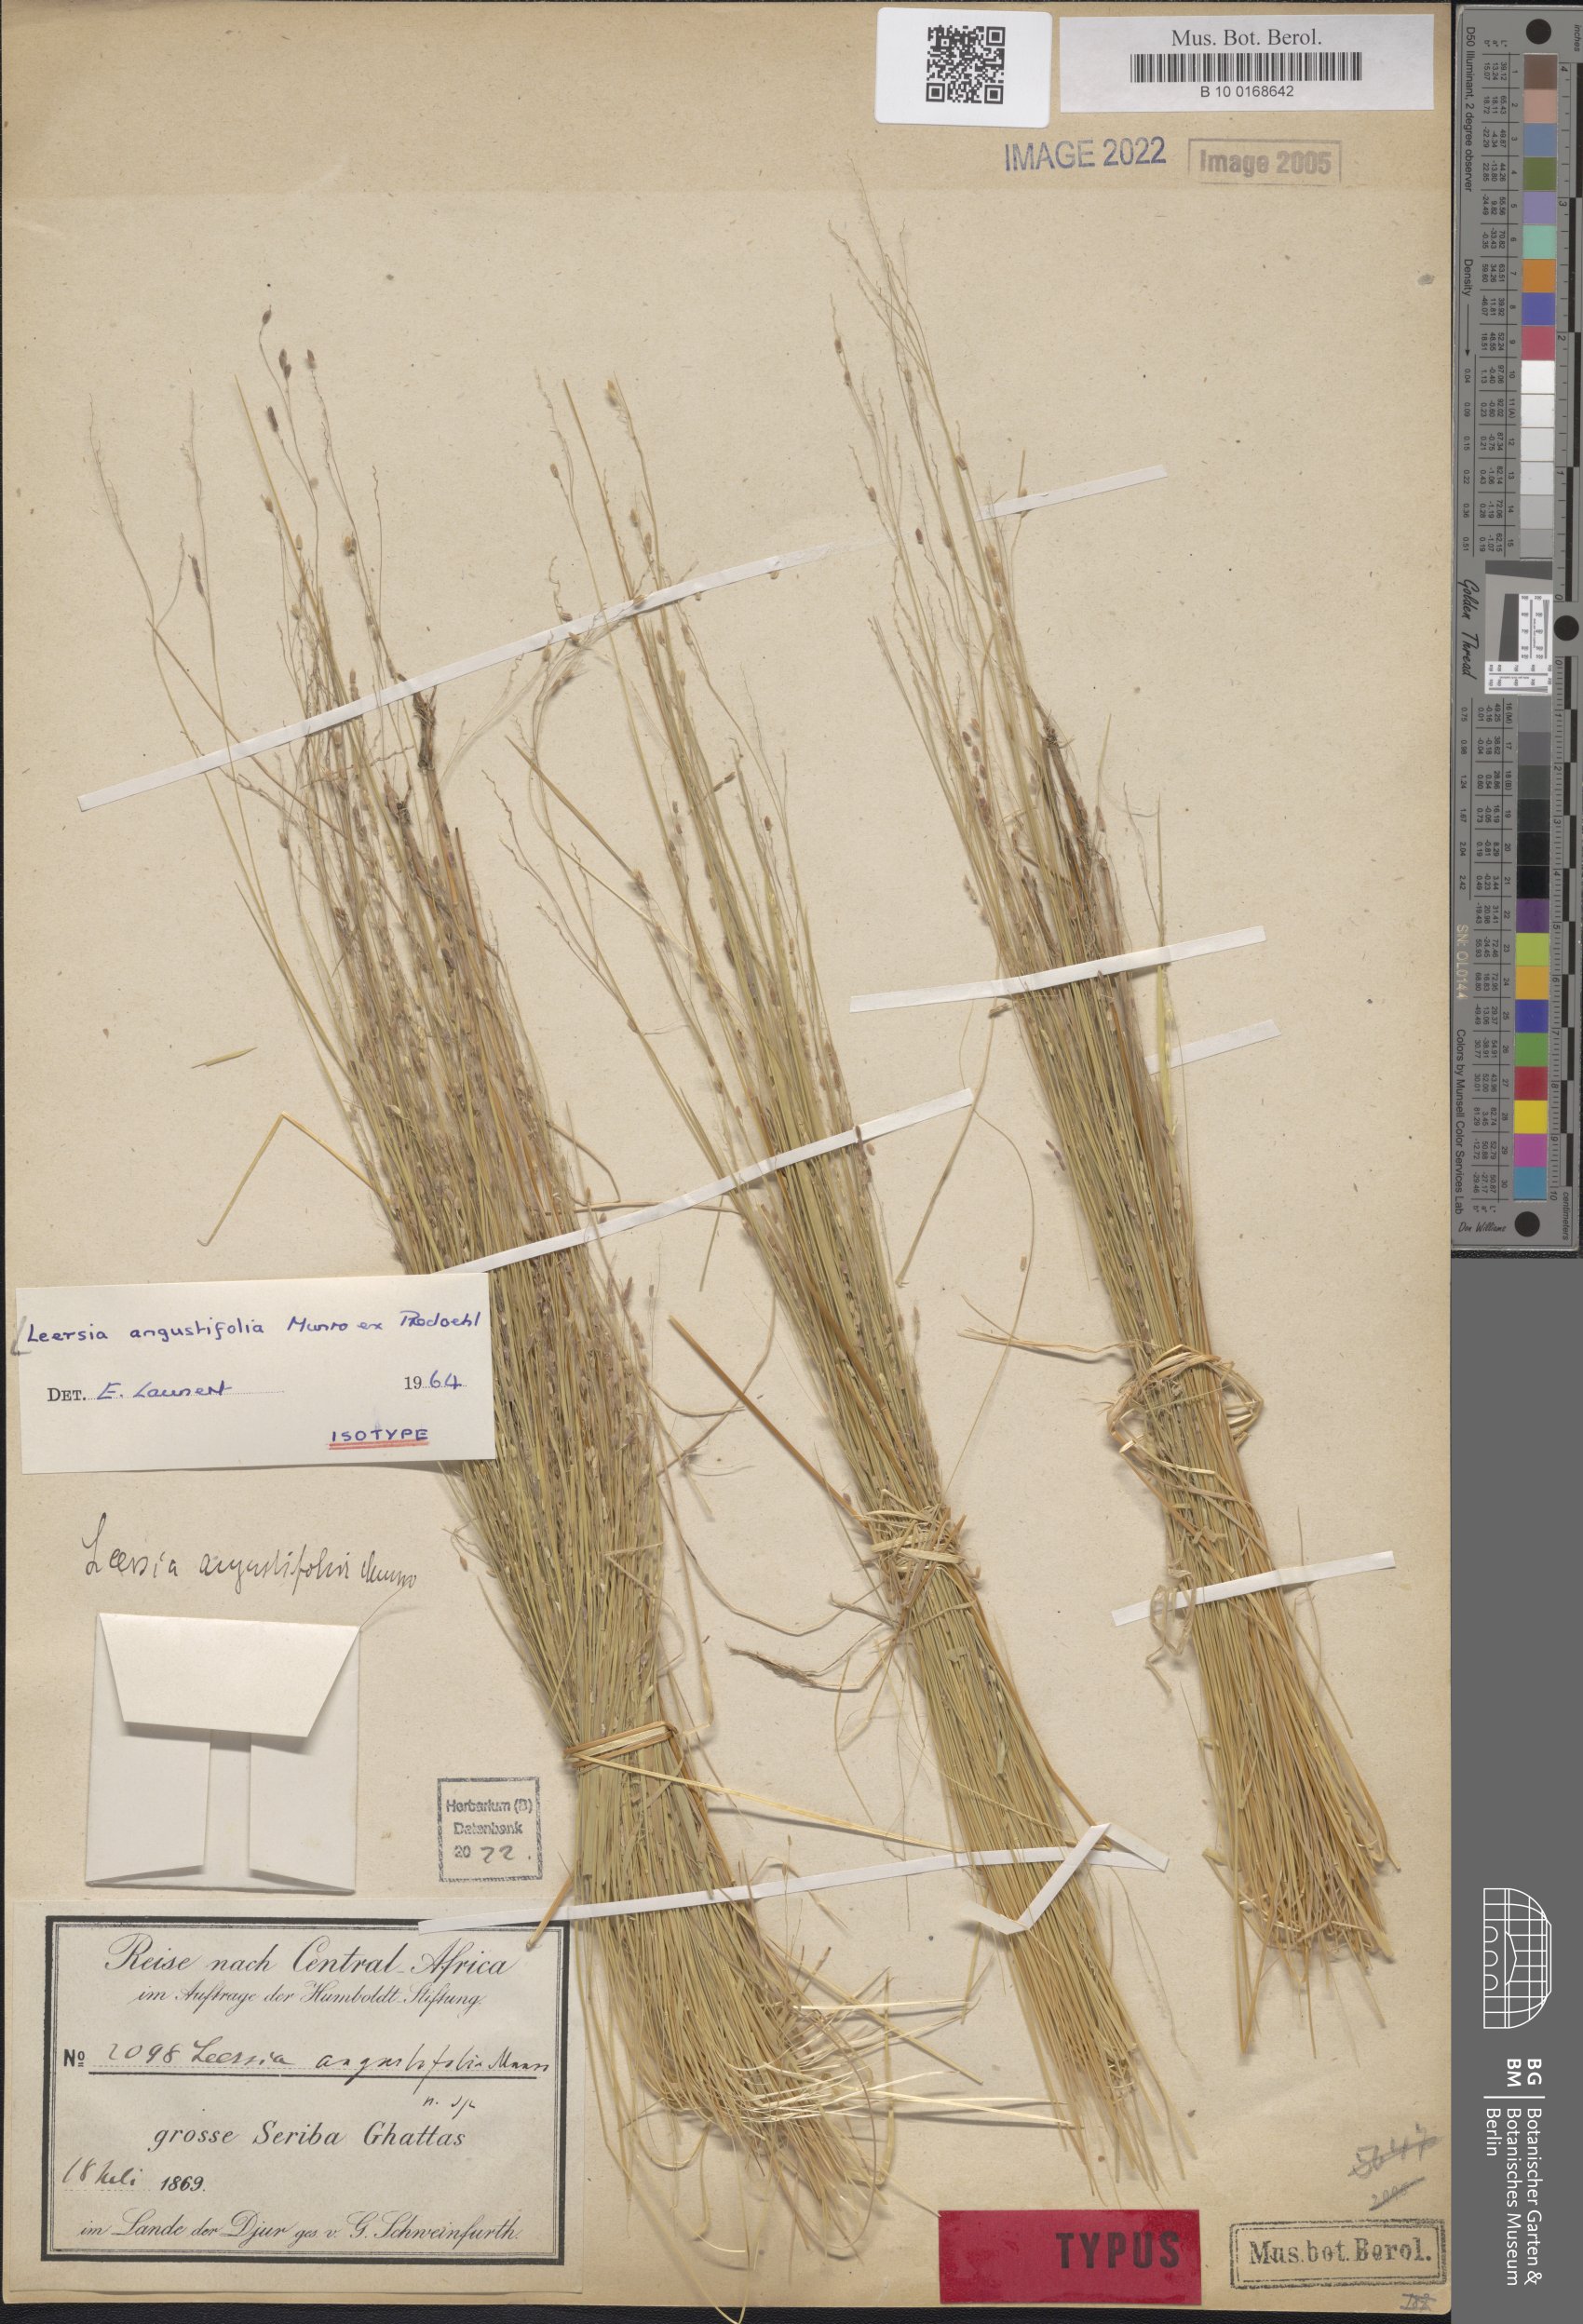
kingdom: Plantae
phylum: Tracheophyta
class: Liliopsida
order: Poales
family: Poaceae
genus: Leersia
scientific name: Leersia angustifolia
